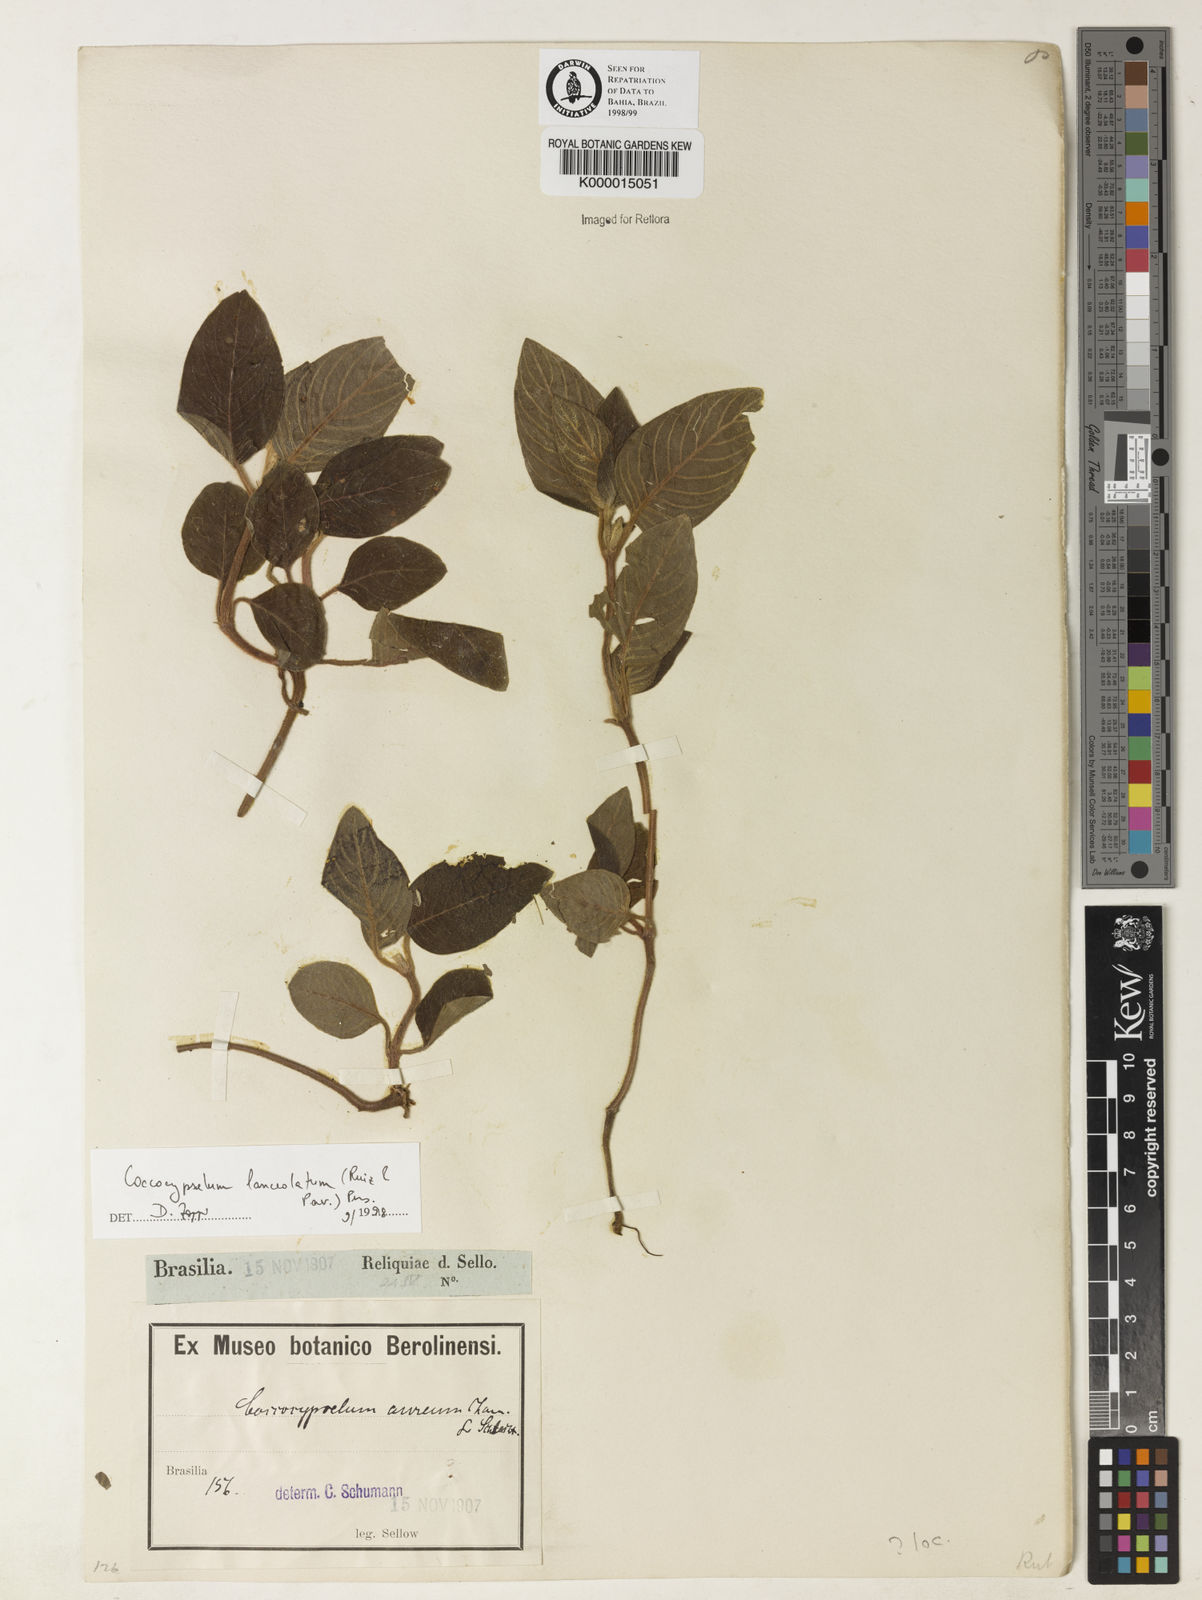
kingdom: Plantae
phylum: Tracheophyta
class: Magnoliopsida
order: Gentianales
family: Rubiaceae
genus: Coccocypselum
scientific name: Coccocypselum lanceolatum
